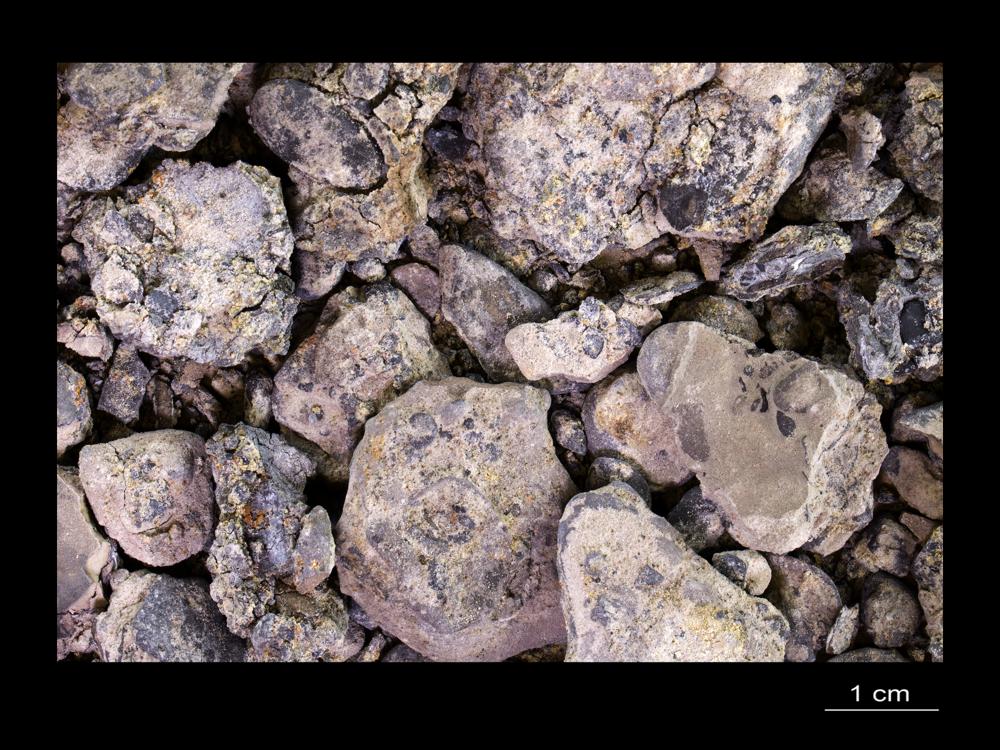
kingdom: Animalia
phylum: Annelida
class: Polychaeta
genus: Volborthella
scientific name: Volborthella tenuis
